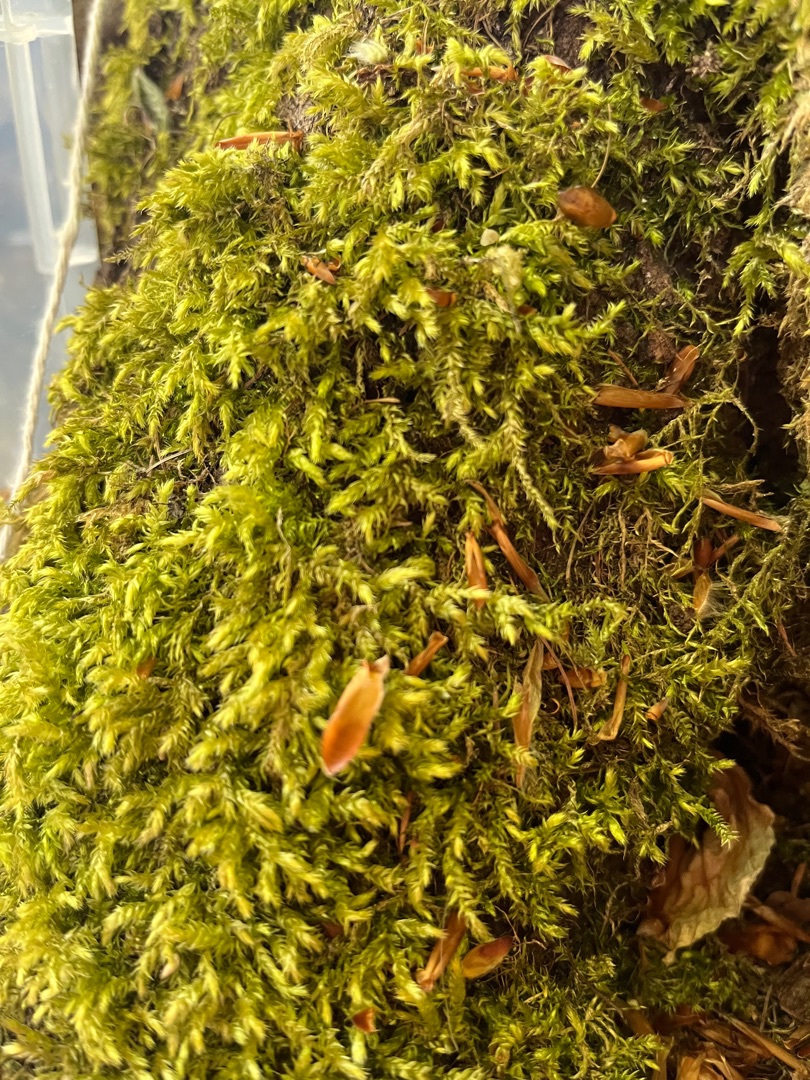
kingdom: Plantae
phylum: Bryophyta
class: Bryopsida
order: Hypnales
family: Brachytheciaceae
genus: Brachythecium
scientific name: Brachythecium rutabulum
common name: Almindelig kortkapsel
